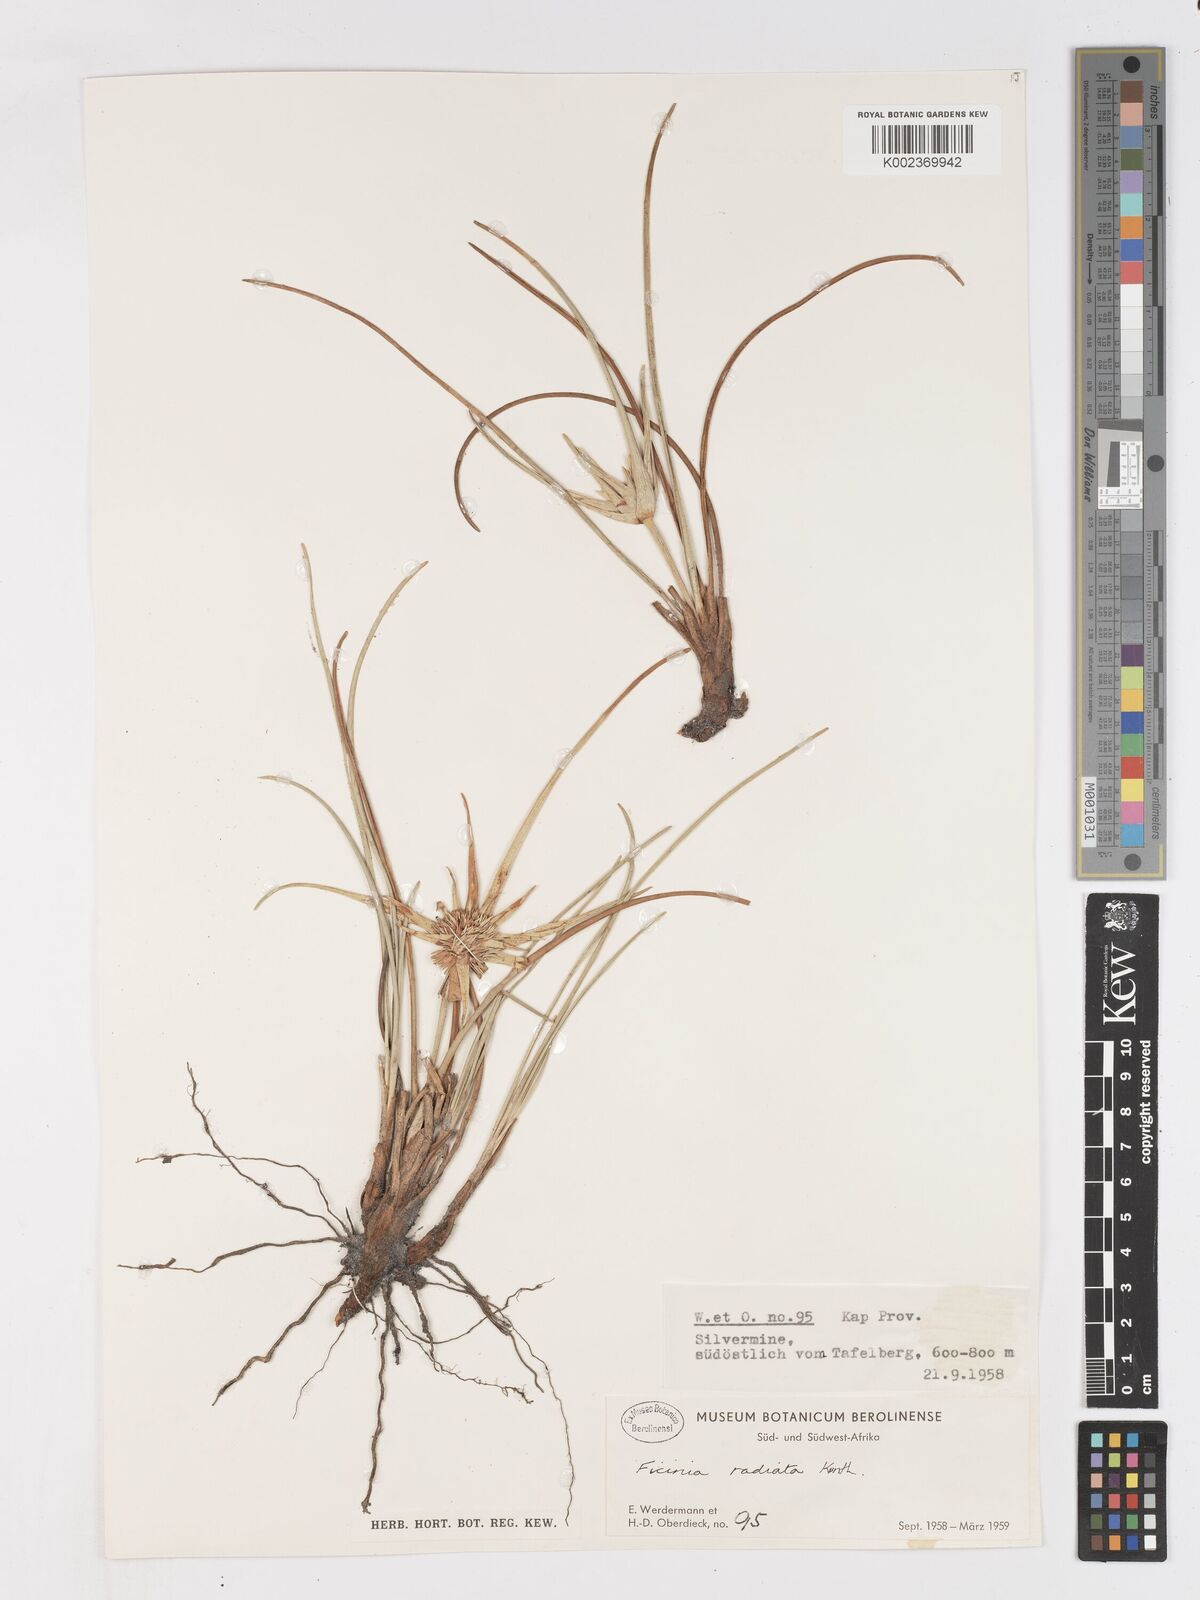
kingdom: Plantae
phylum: Tracheophyta
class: Liliopsida
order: Poales
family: Cyperaceae
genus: Ficinia
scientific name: Ficinia radiata
